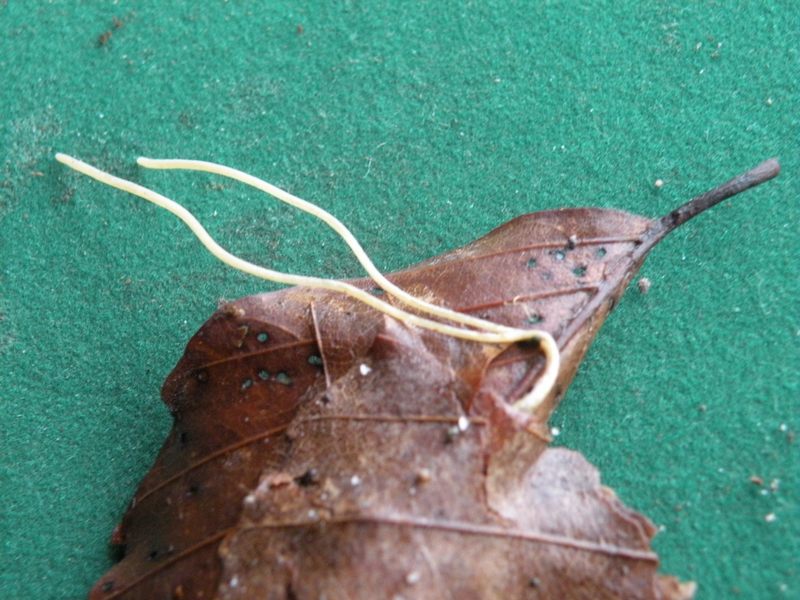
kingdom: Fungi
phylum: Basidiomycota
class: Agaricomycetes
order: Agaricales
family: Typhulaceae
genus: Typhula
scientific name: Typhula juncea
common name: trådagtig rørkølle
